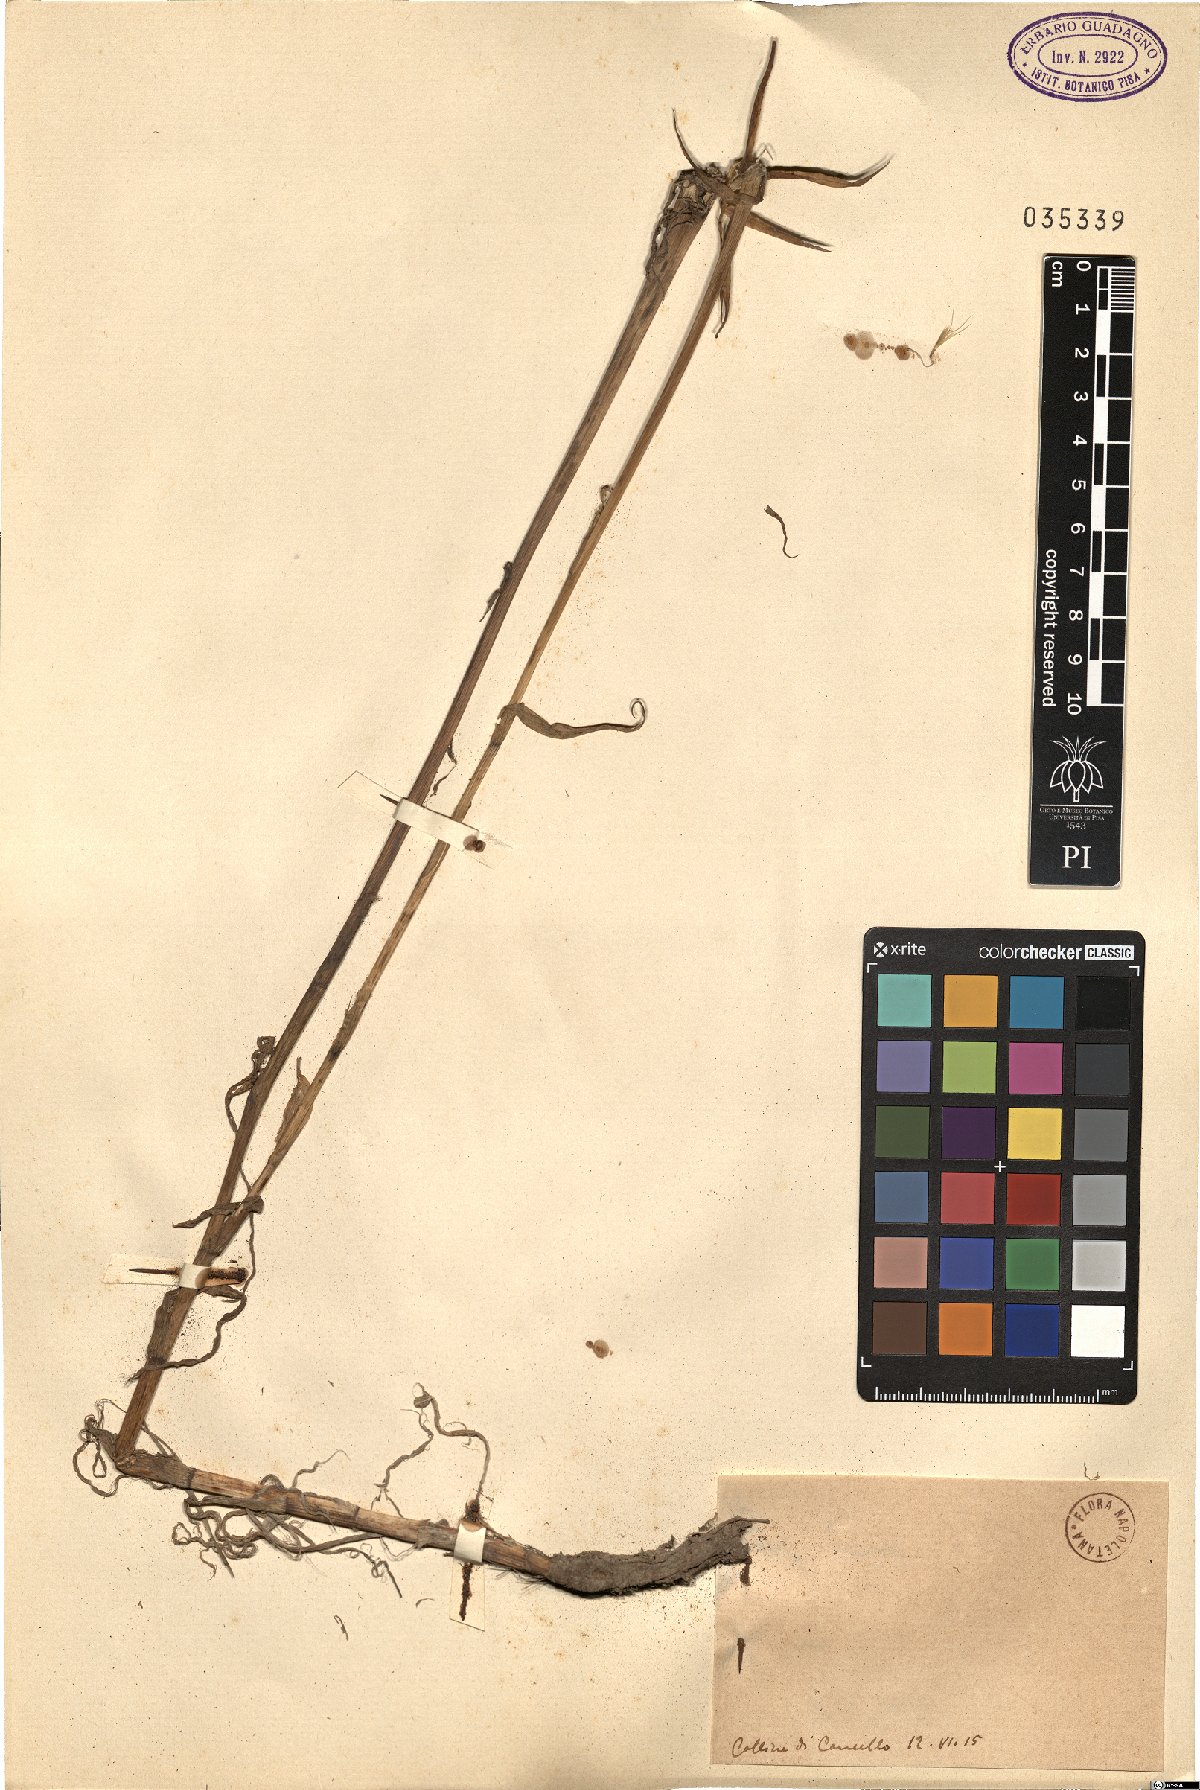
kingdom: Plantae
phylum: Tracheophyta
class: Magnoliopsida
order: Asterales
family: Asteraceae
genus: Geropogon
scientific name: Geropogon
